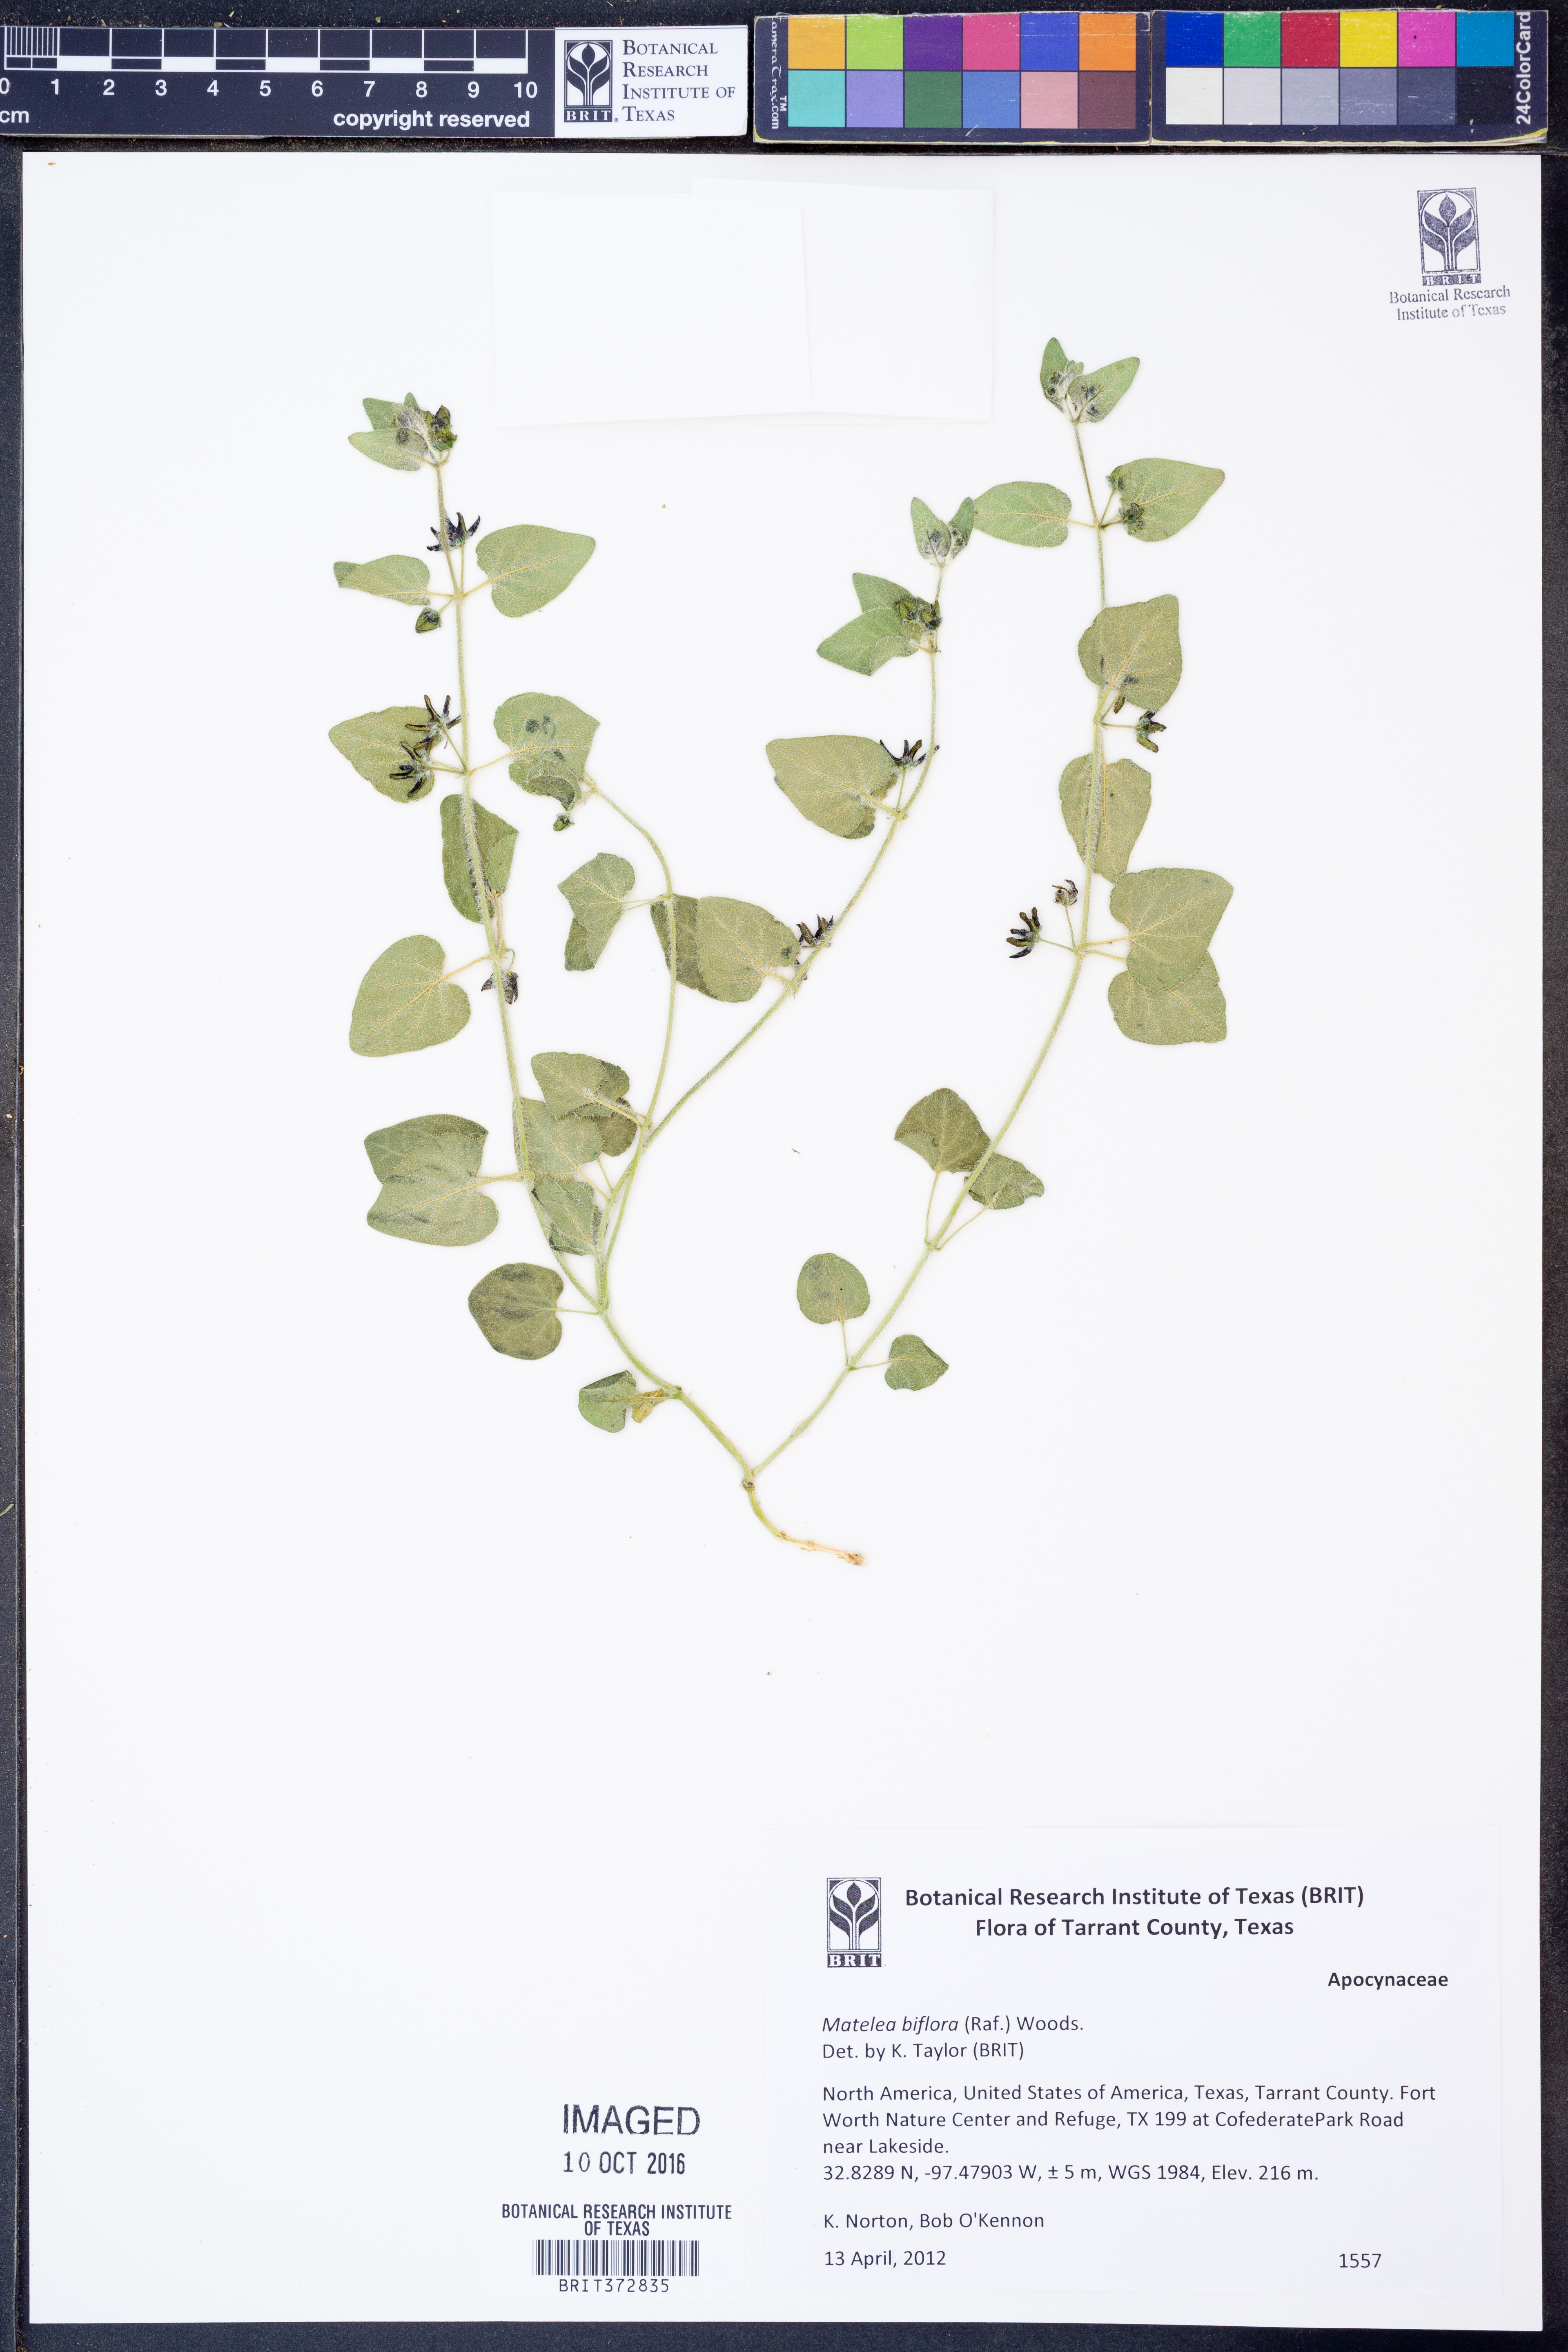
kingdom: Plantae
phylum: Tracheophyta
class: Magnoliopsida
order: Gentianales
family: Apocynaceae
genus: Chthamalia
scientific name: Chthamalia biflora
